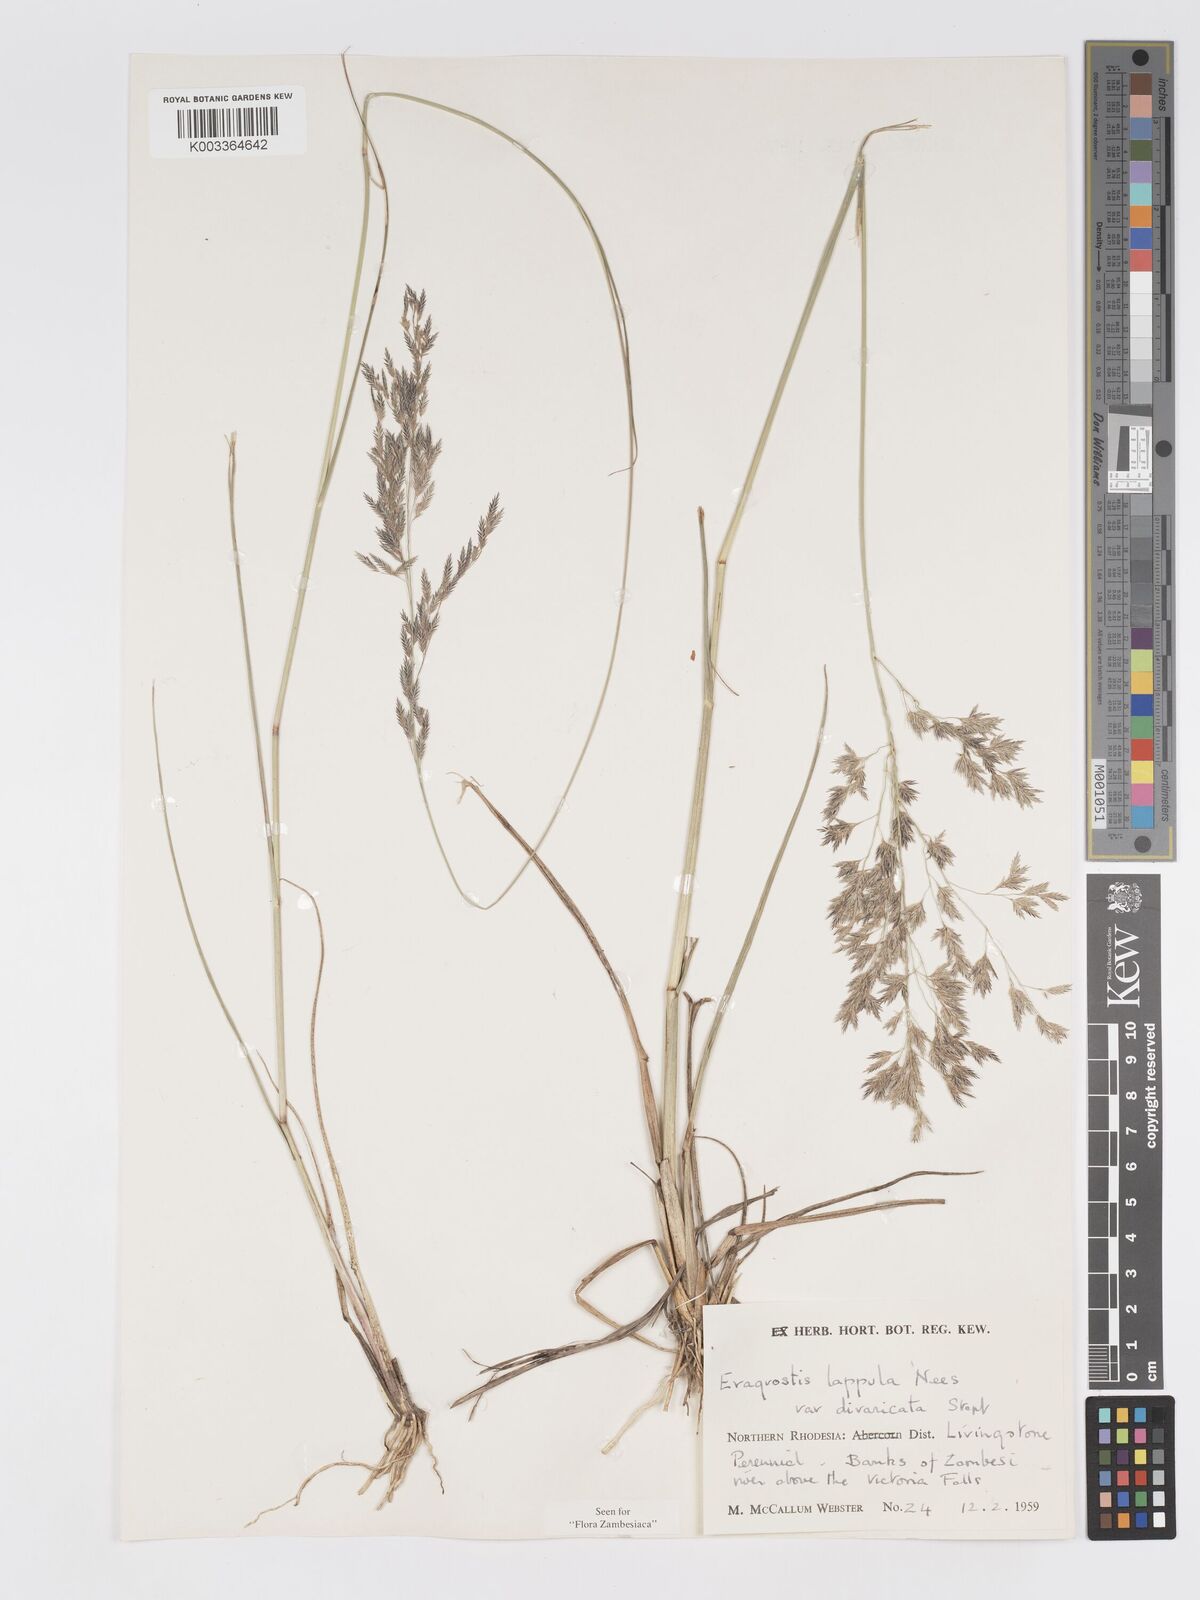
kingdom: Plantae
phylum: Tracheophyta
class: Liliopsida
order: Poales
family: Poaceae
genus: Eragrostis
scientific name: Eragrostis lappula
